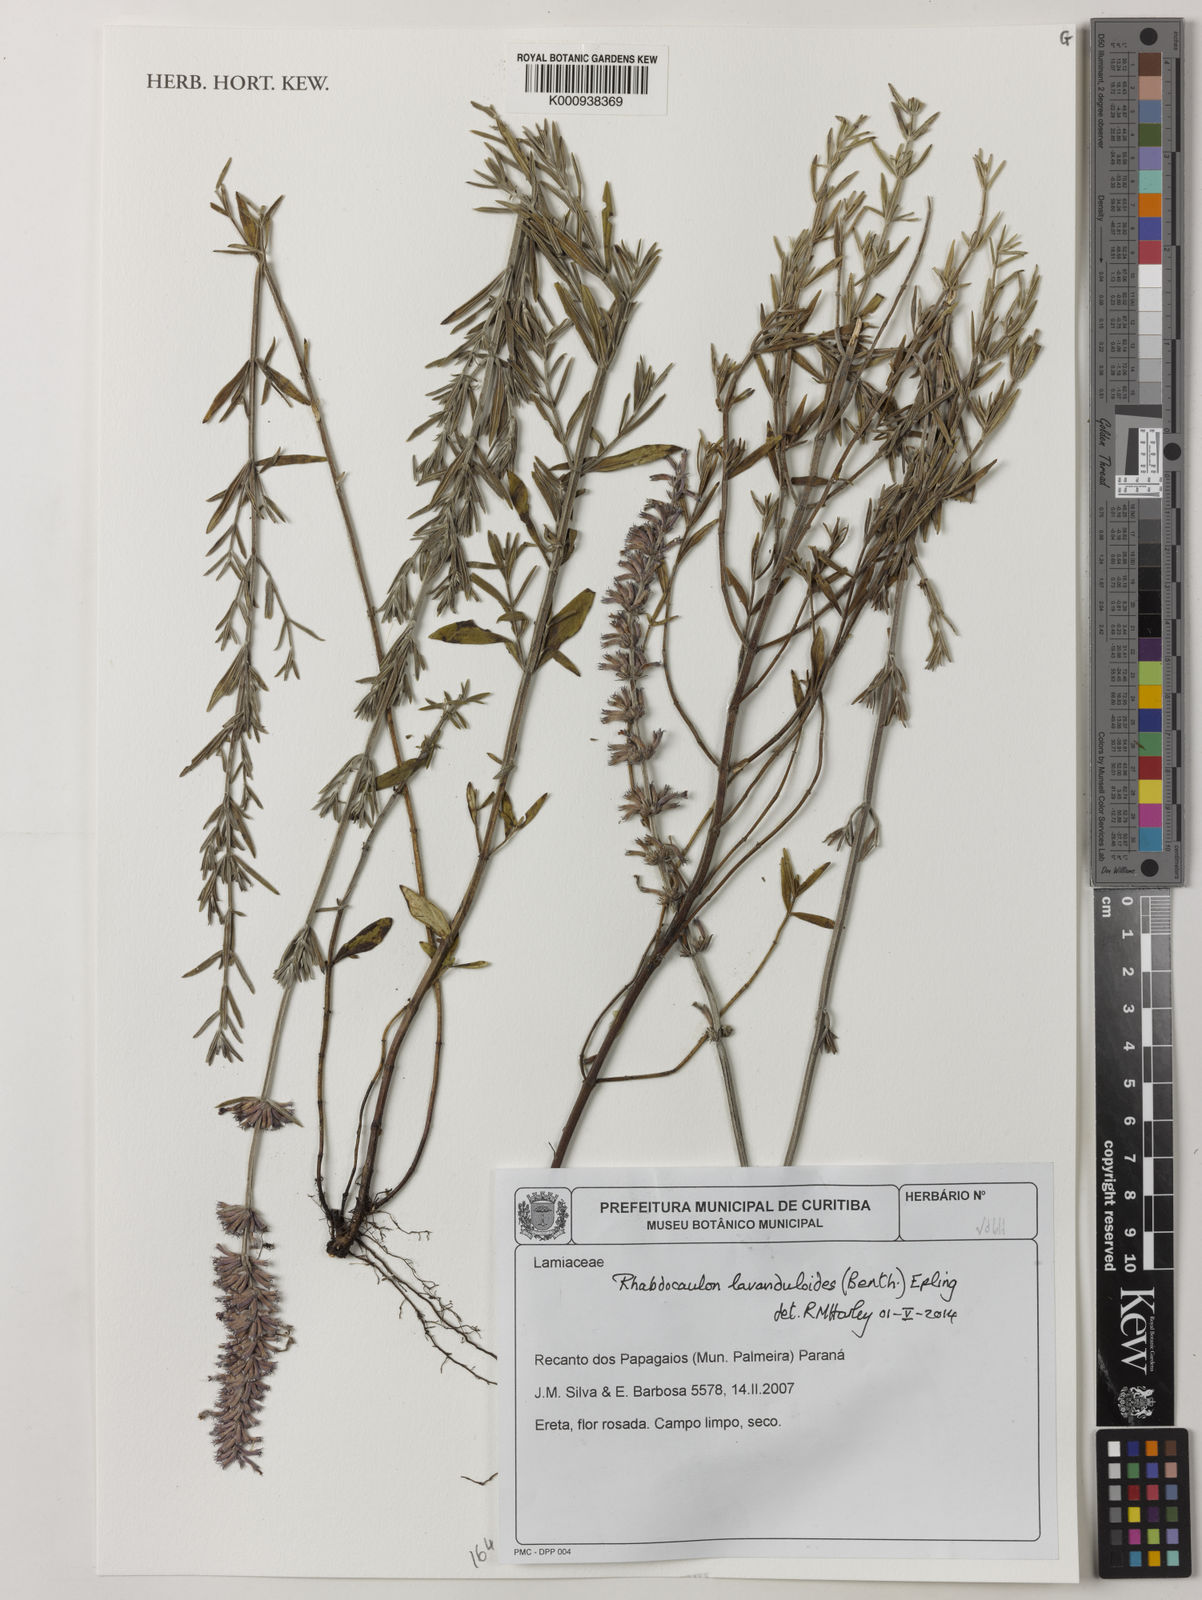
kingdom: Plantae
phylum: Tracheophyta
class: Magnoliopsida
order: Lamiales
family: Lamiaceae
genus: Rhabdocaulon
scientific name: Rhabdocaulon lavanduloides
